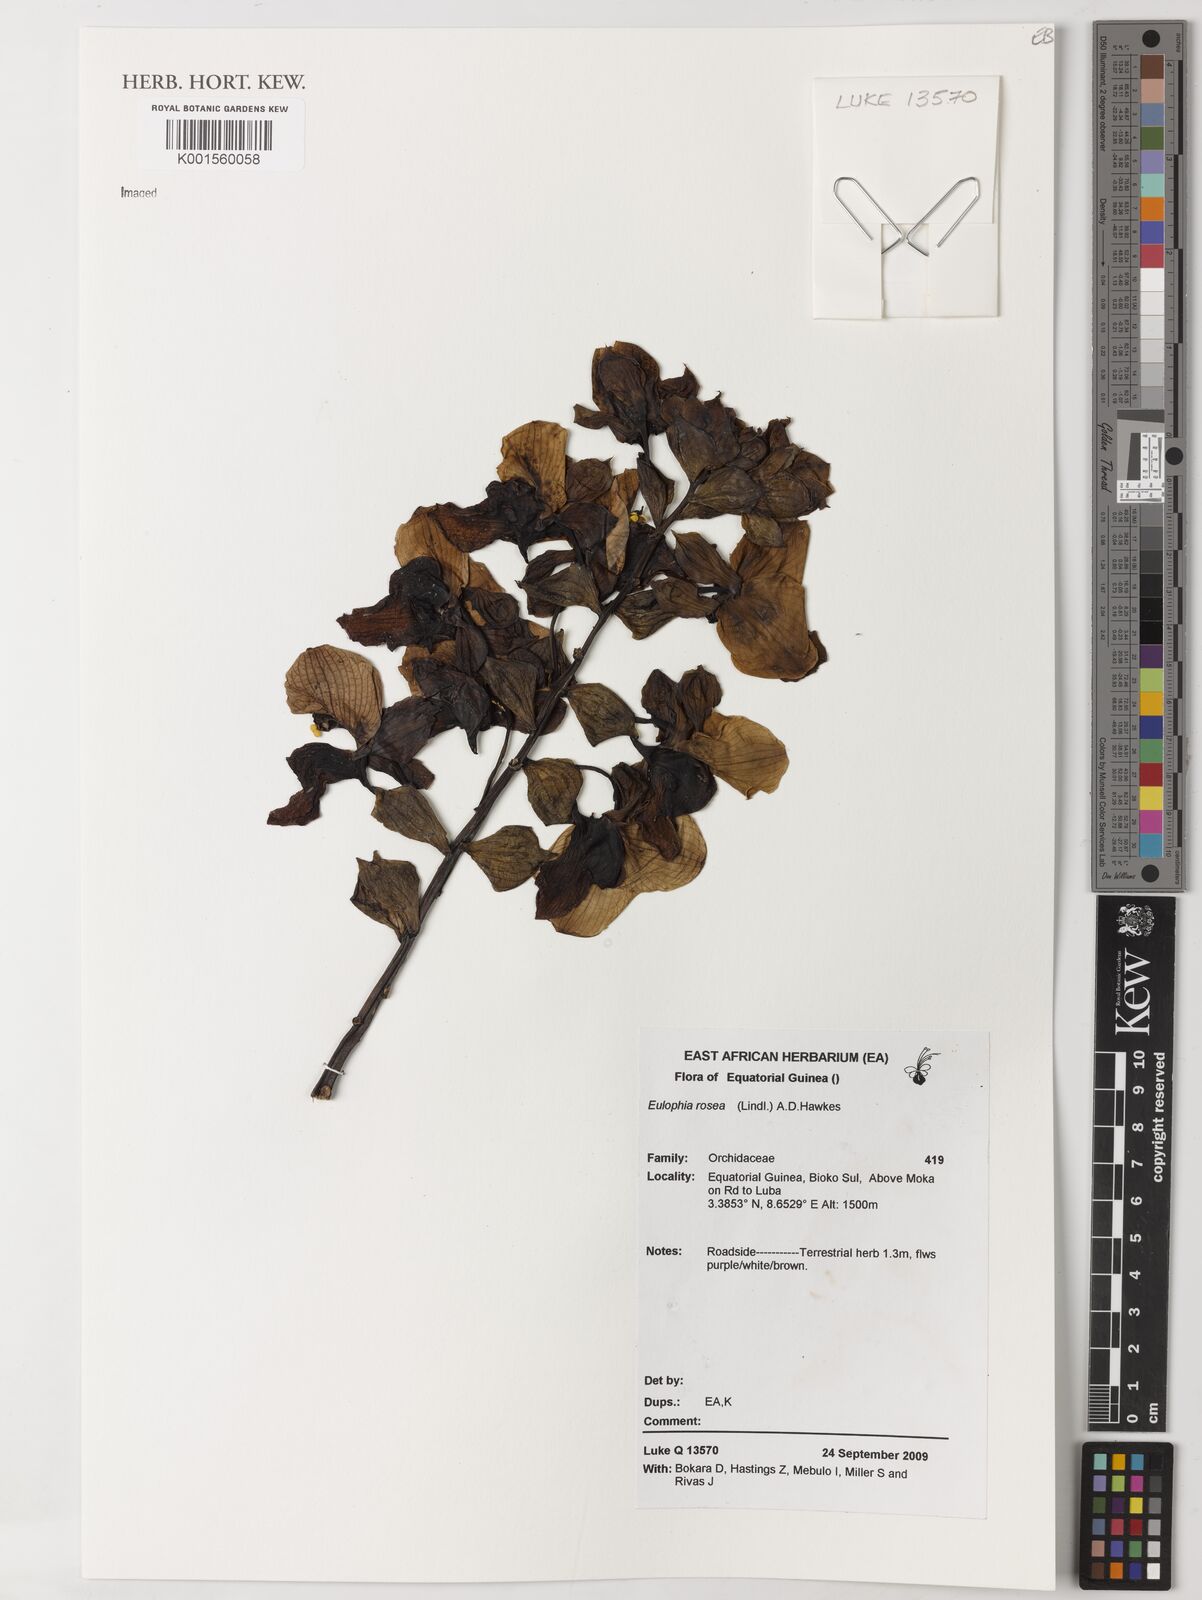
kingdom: Plantae
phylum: Tracheophyta
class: Liliopsida
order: Asparagales
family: Orchidaceae
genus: Eulophia
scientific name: Eulophia horsfallii
